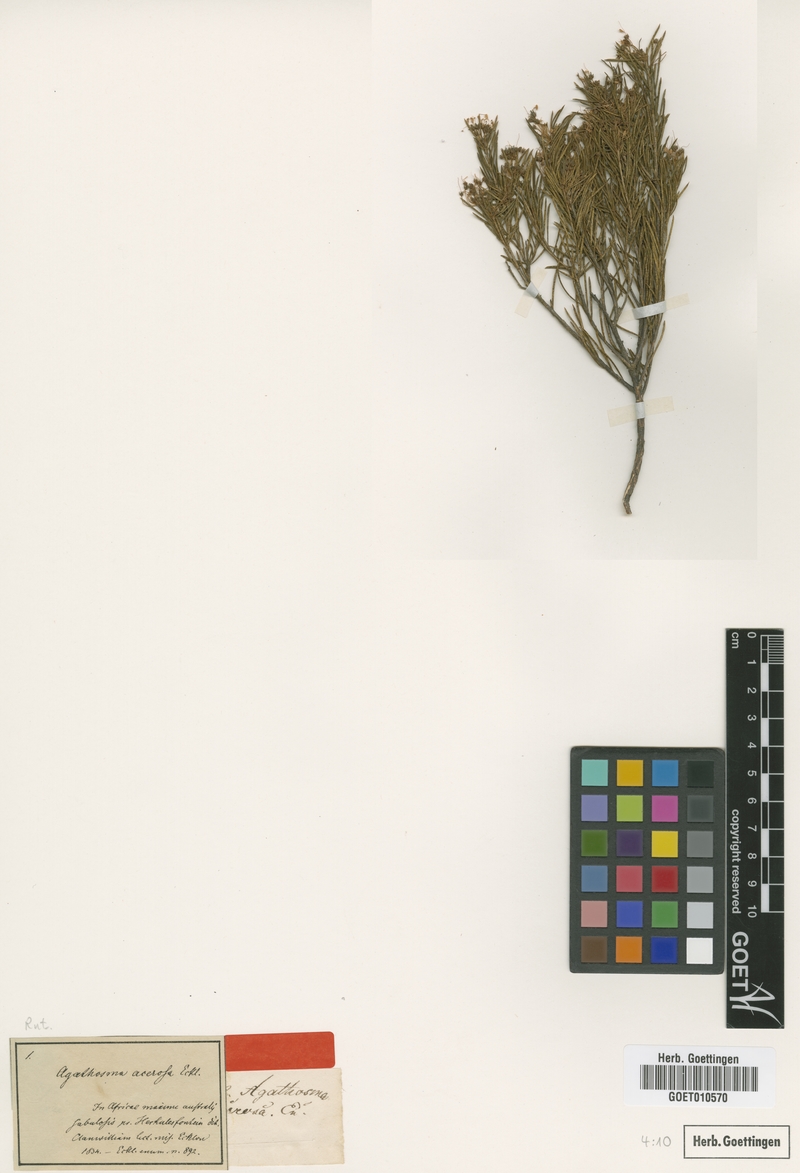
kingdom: Plantae
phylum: Tracheophyta
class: Magnoliopsida
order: Sapindales
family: Rutaceae
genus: Agathosma
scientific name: Agathosma bisulca
